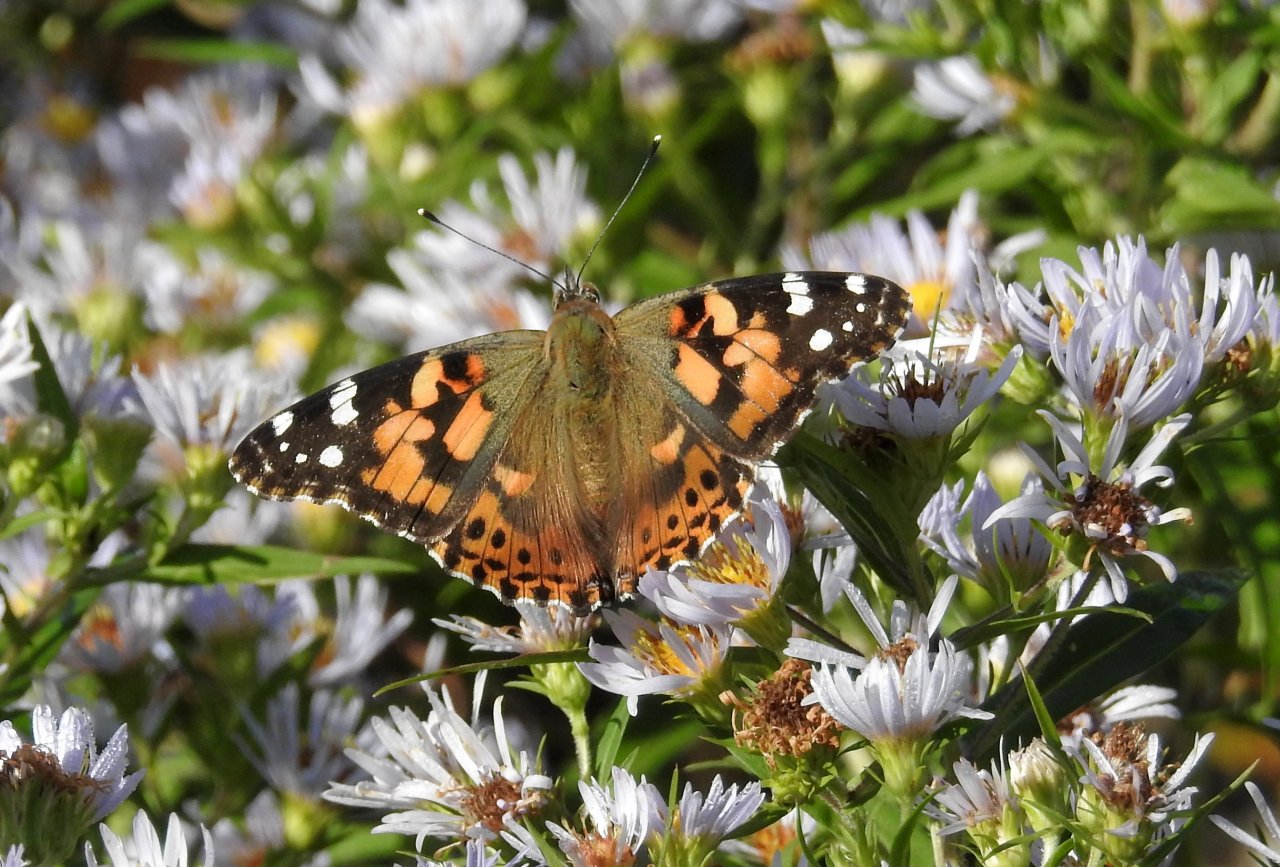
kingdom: Animalia
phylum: Arthropoda
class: Insecta
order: Lepidoptera
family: Nymphalidae
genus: Vanessa
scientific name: Vanessa cardui
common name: Painted Lady
